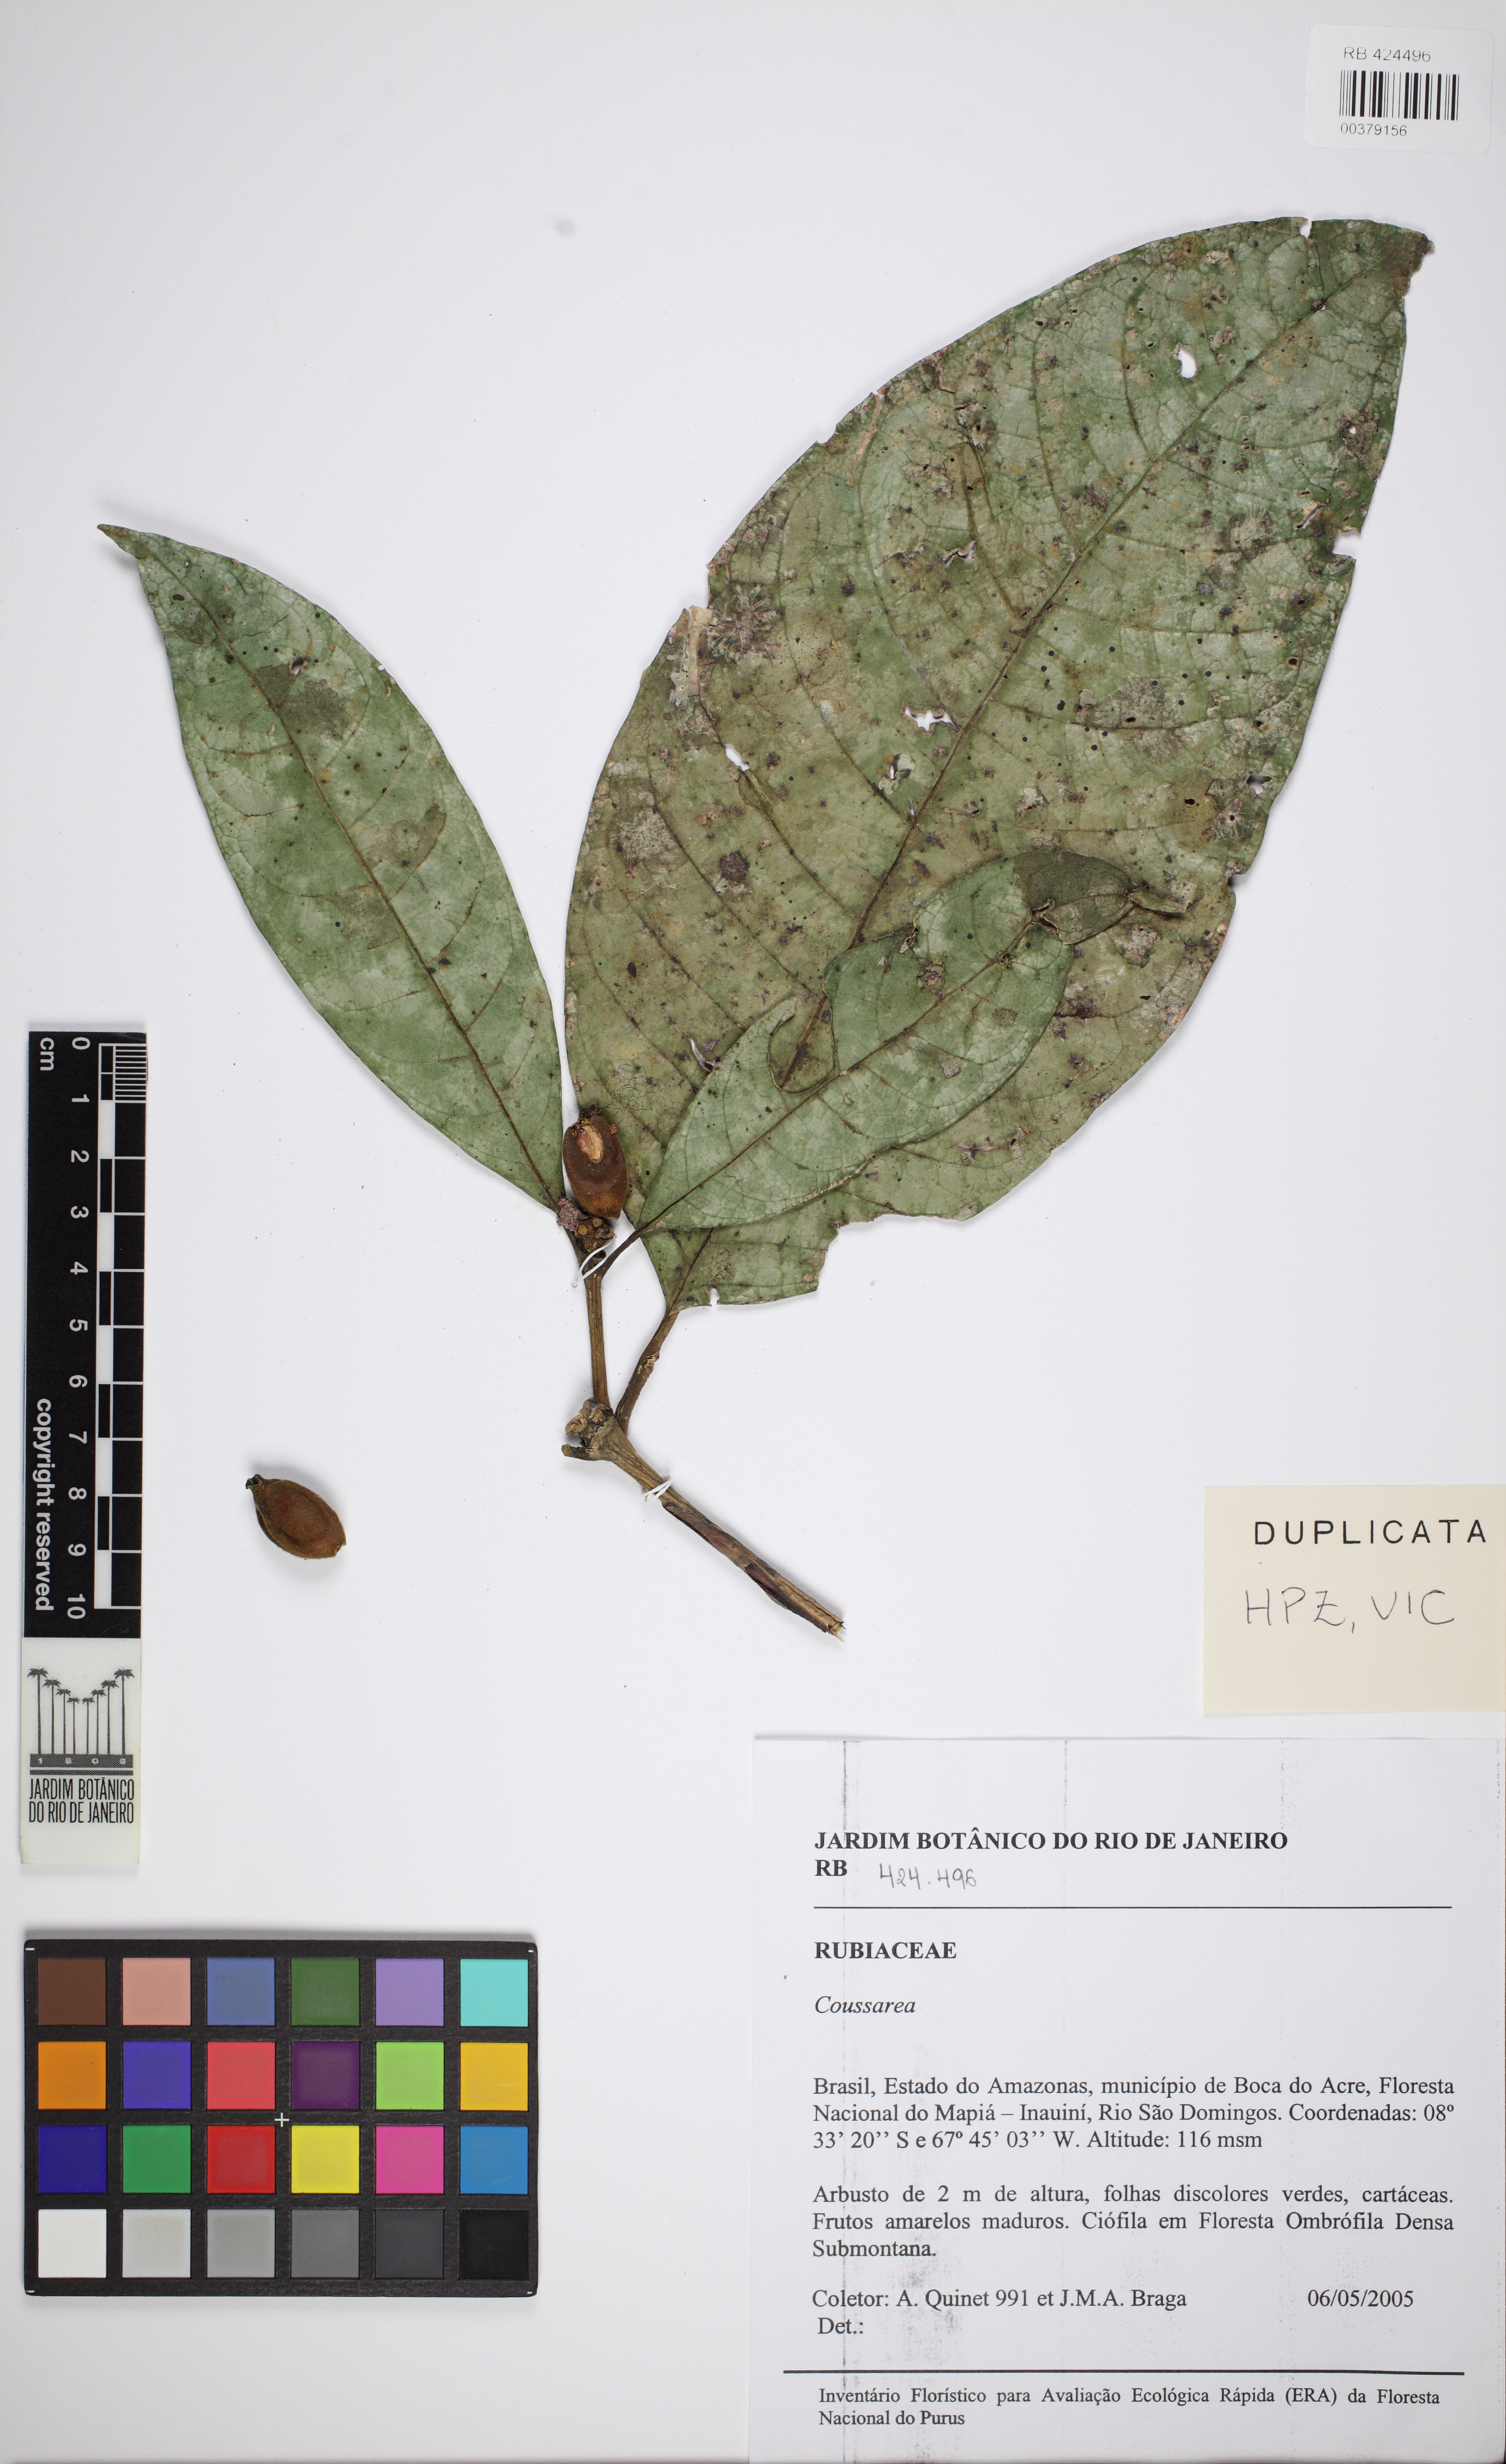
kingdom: Plantae
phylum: Tracheophyta
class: Magnoliopsida
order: Gentianales
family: Rubiaceae
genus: Coussarea
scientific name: Coussarea
